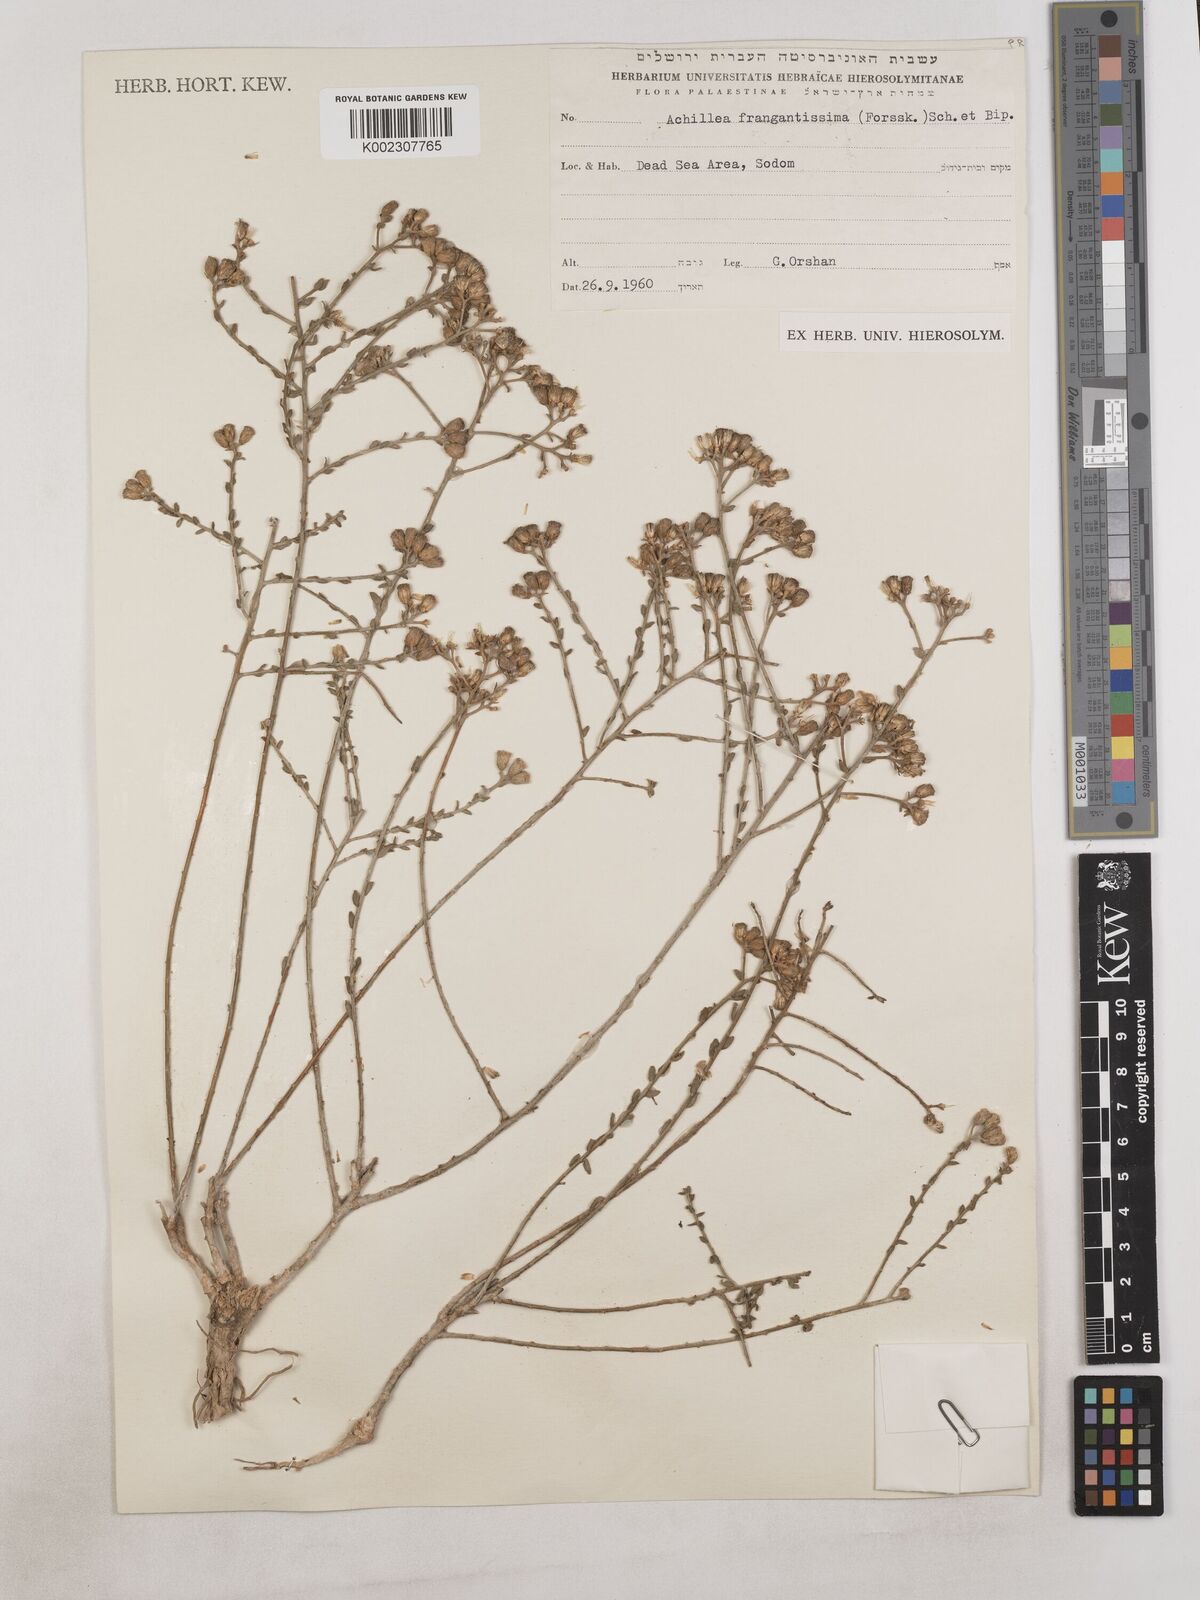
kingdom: Plantae
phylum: Tracheophyta
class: Magnoliopsida
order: Asterales
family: Asteraceae
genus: Achillea
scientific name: Achillea fragrantissima
